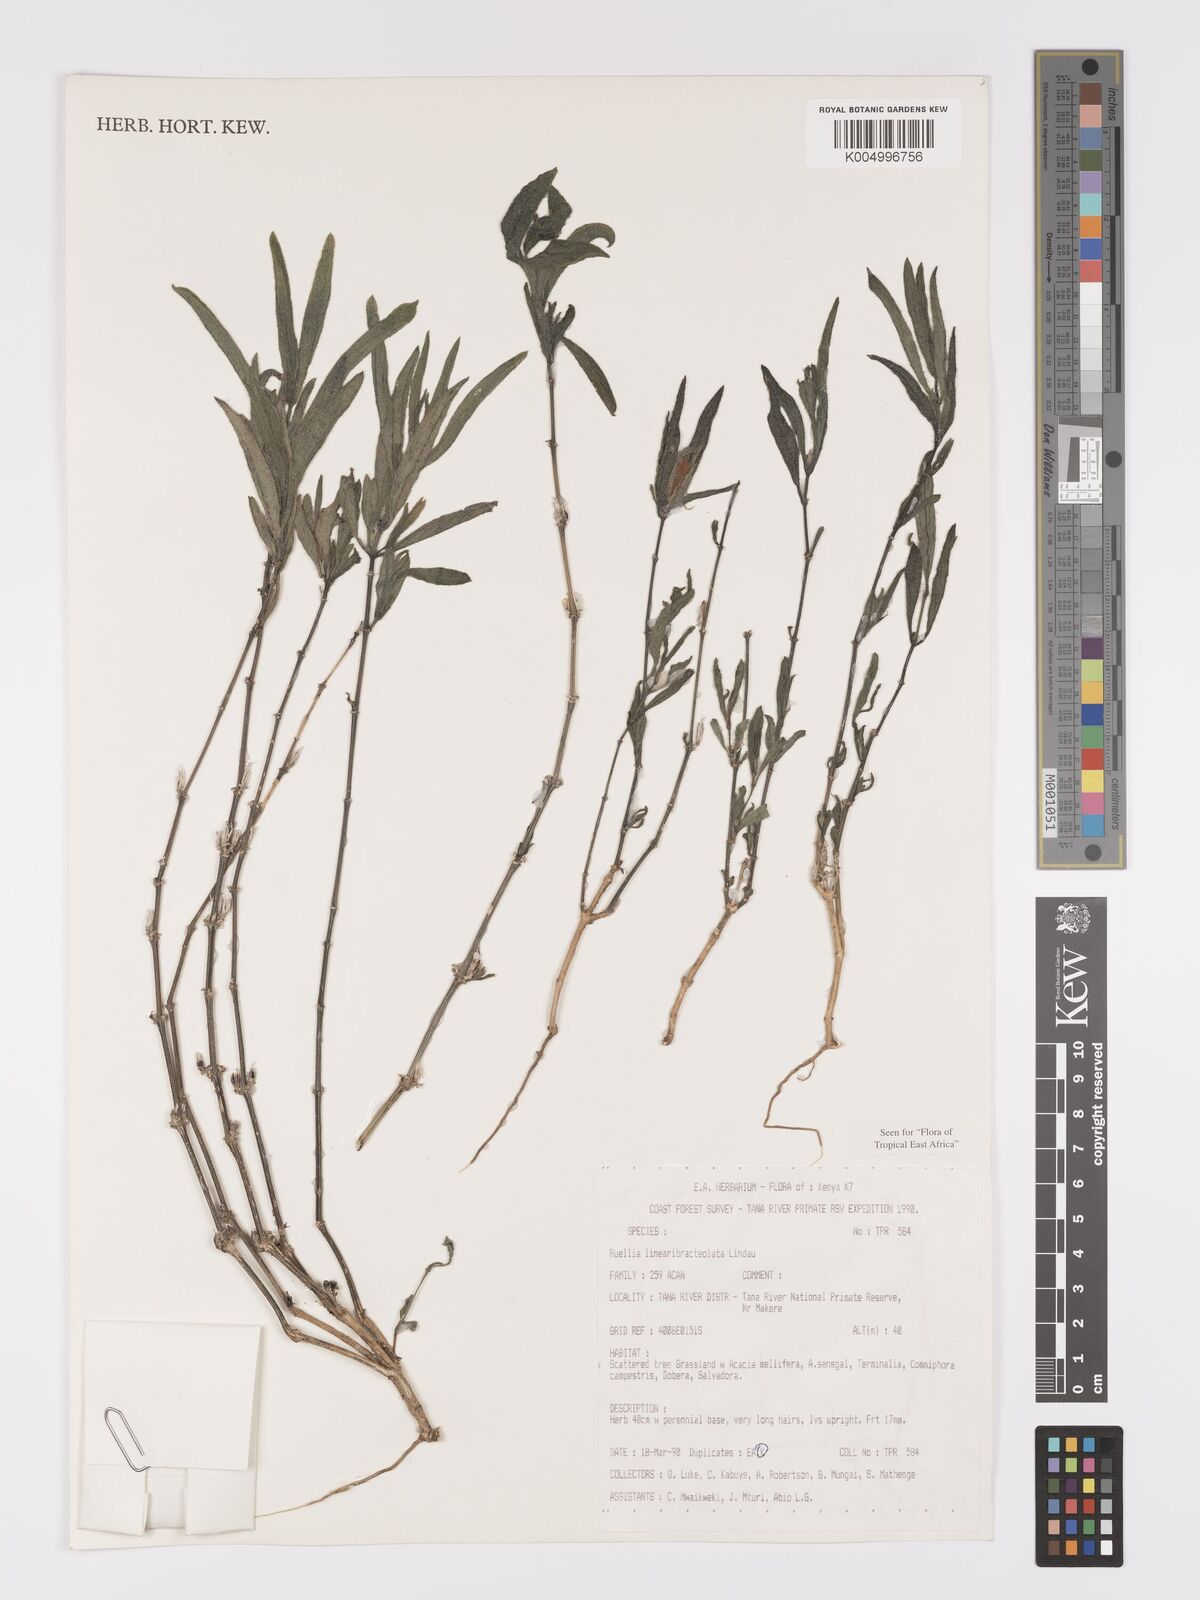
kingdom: Plantae
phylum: Tracheophyta
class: Magnoliopsida
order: Lamiales
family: Acanthaceae
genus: Ruellia
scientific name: Ruellia linearibracteolata
